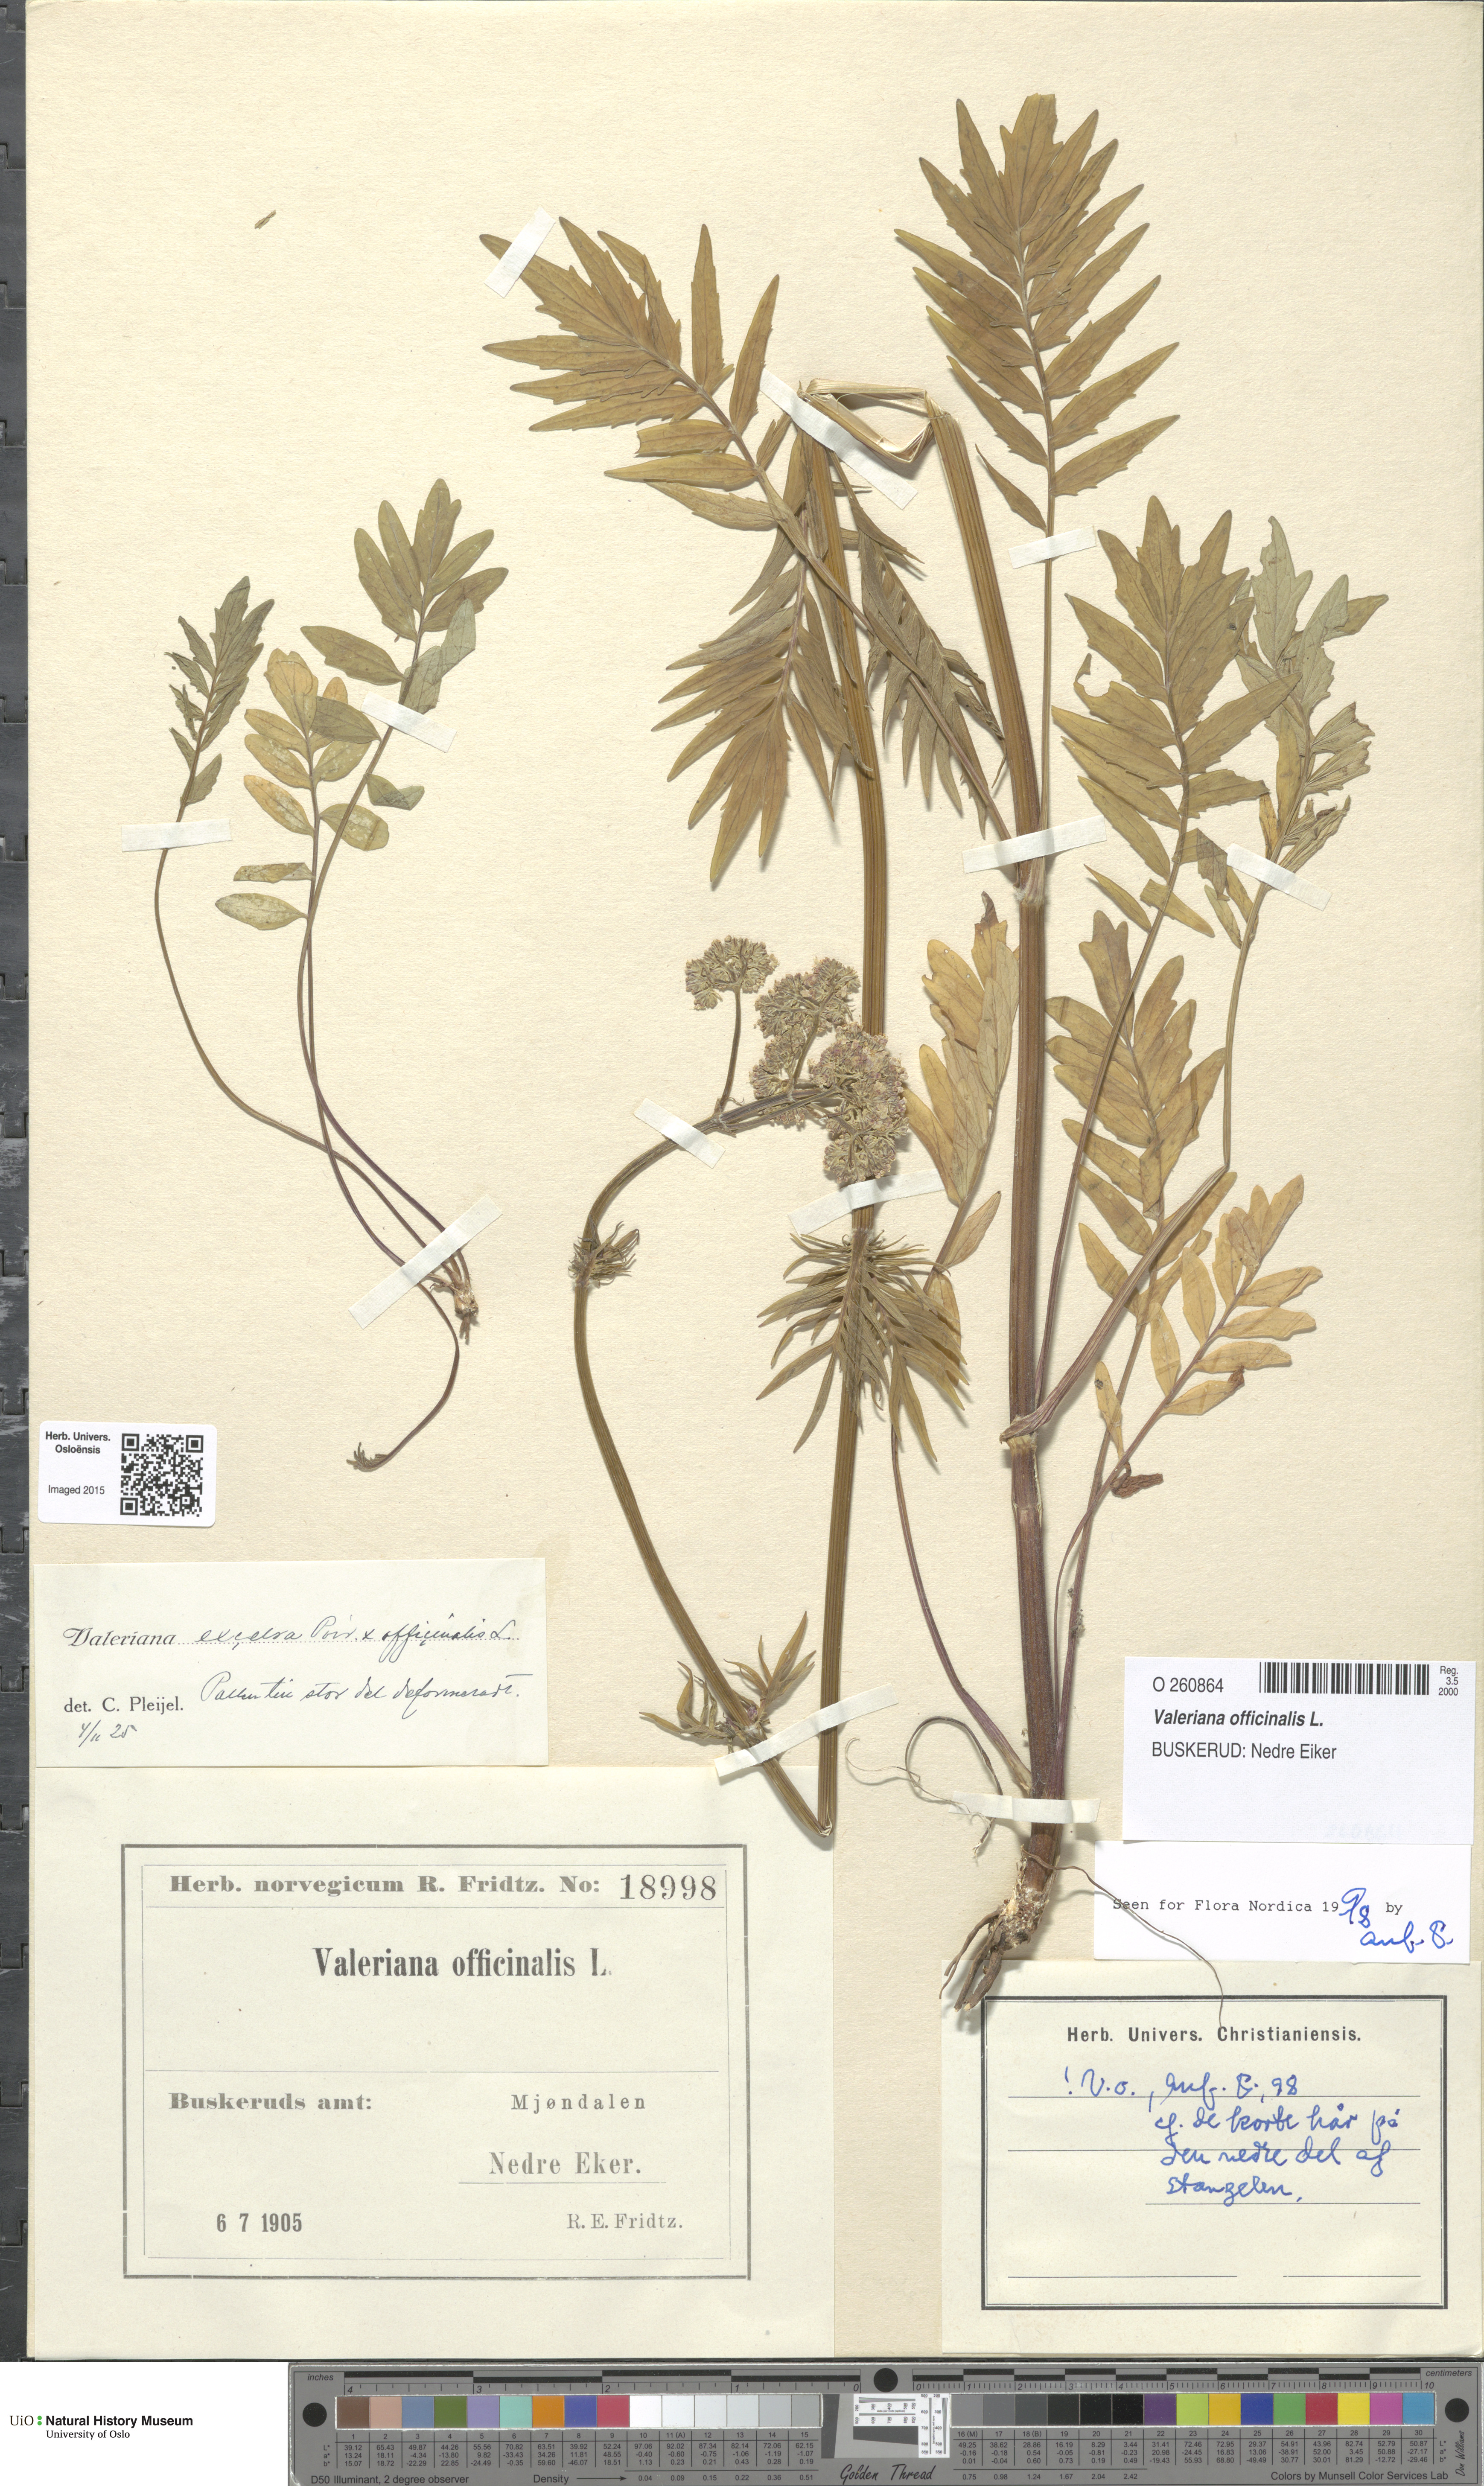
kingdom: Plantae
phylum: Tracheophyta
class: Magnoliopsida
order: Dipsacales
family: Caprifoliaceae
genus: Valeriana
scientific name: Valeriana officinalis
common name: Common valerian
